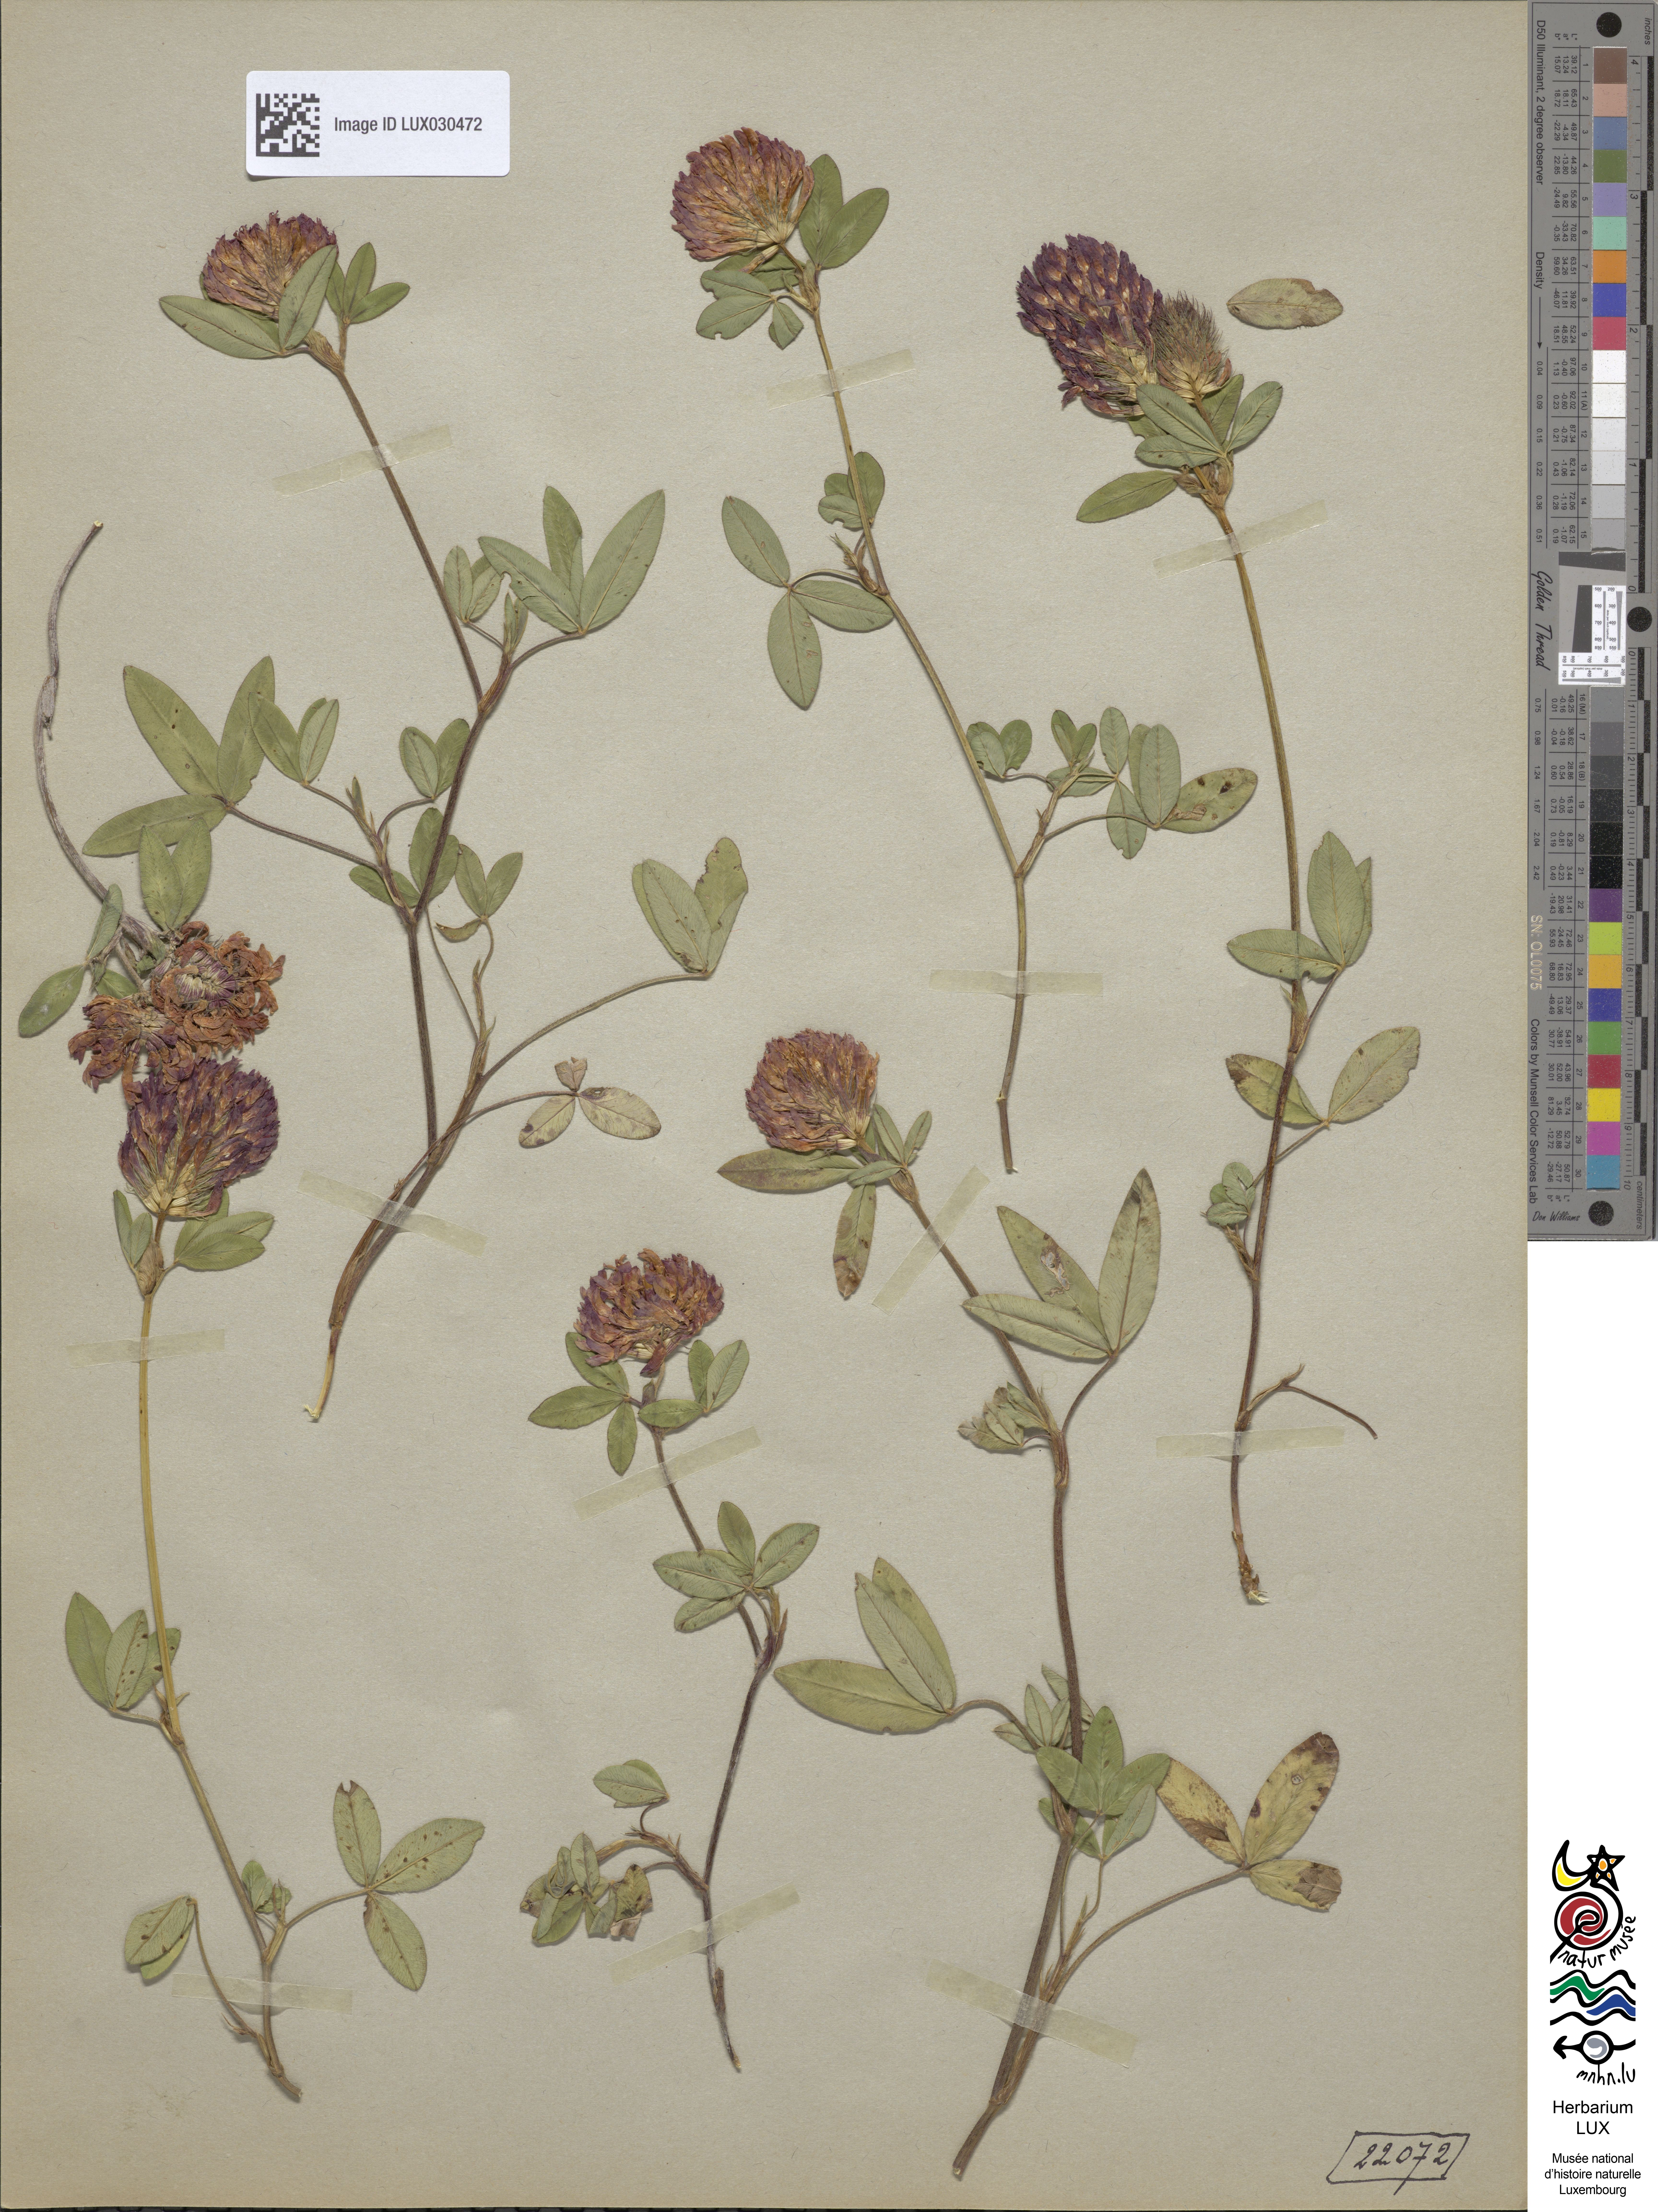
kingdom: Plantae
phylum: Tracheophyta
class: Magnoliopsida
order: Fabales
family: Fabaceae
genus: Trifolium
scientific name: Trifolium medium
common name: Zigzag clover
